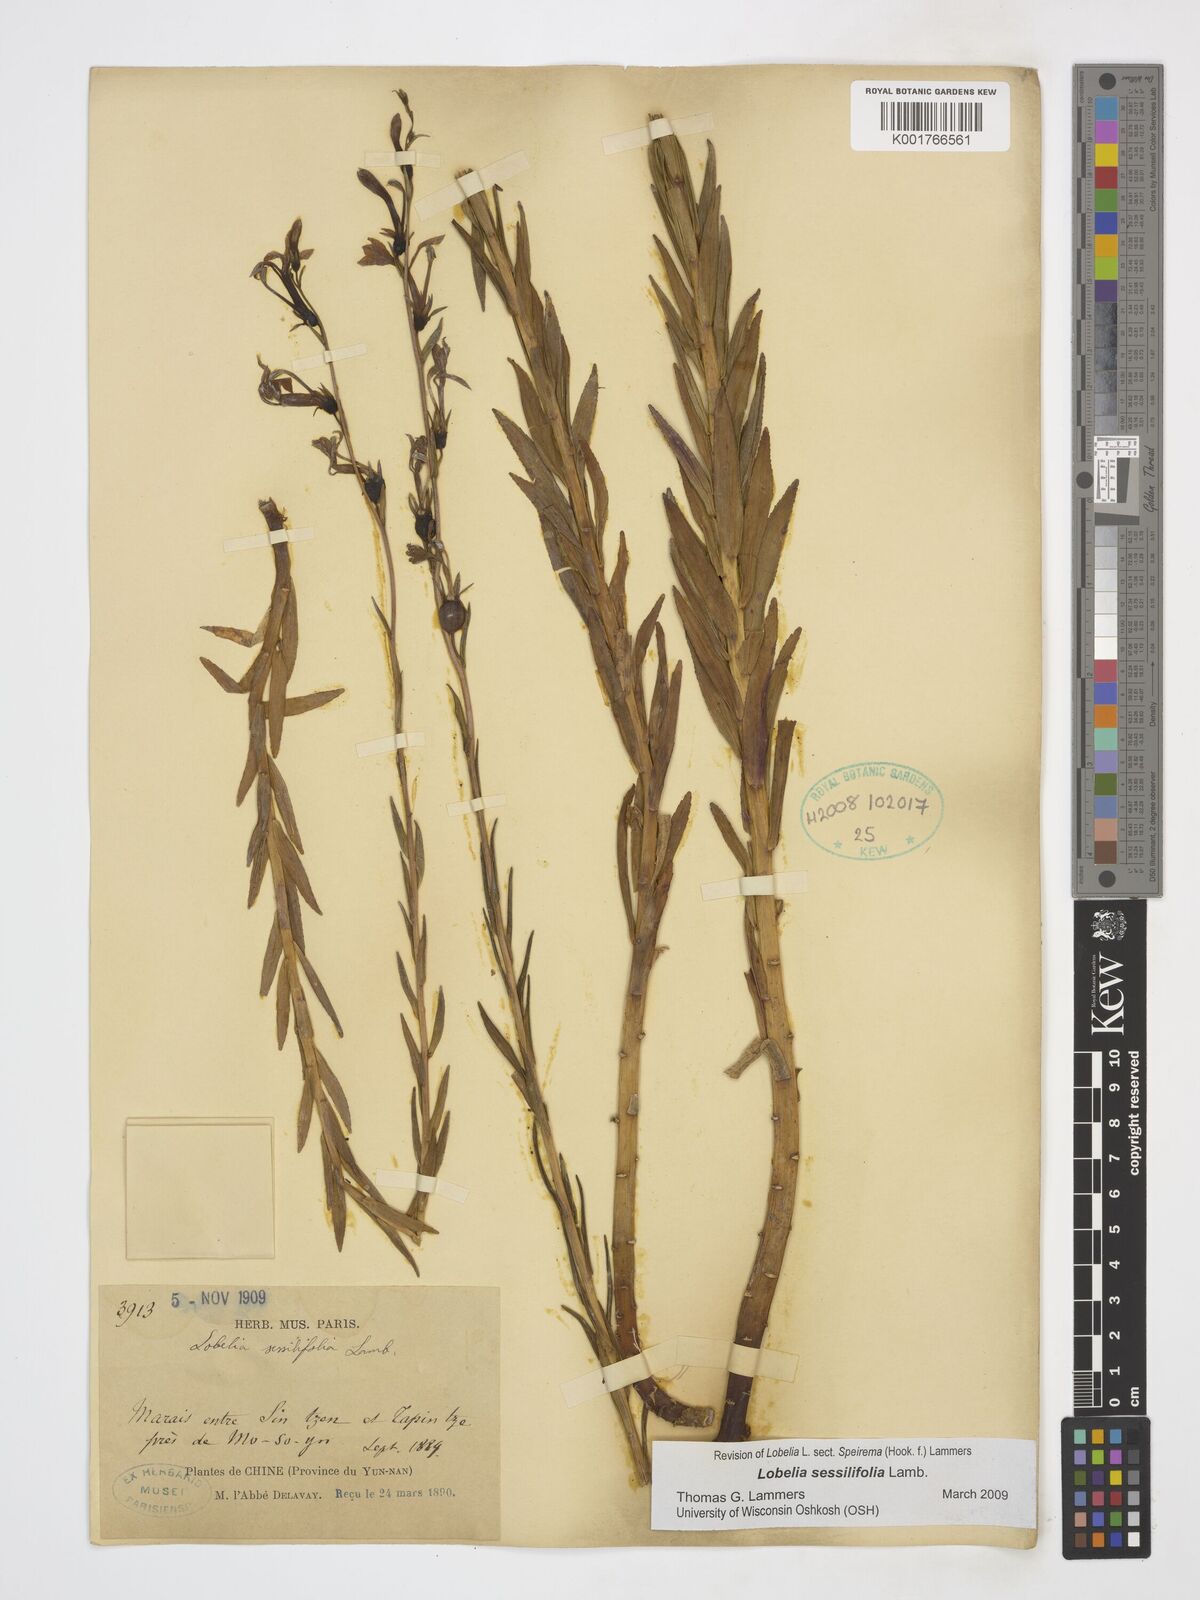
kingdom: Plantae
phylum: Tracheophyta
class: Magnoliopsida
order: Asterales
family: Campanulaceae
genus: Lobelia
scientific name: Lobelia sessilifolia
